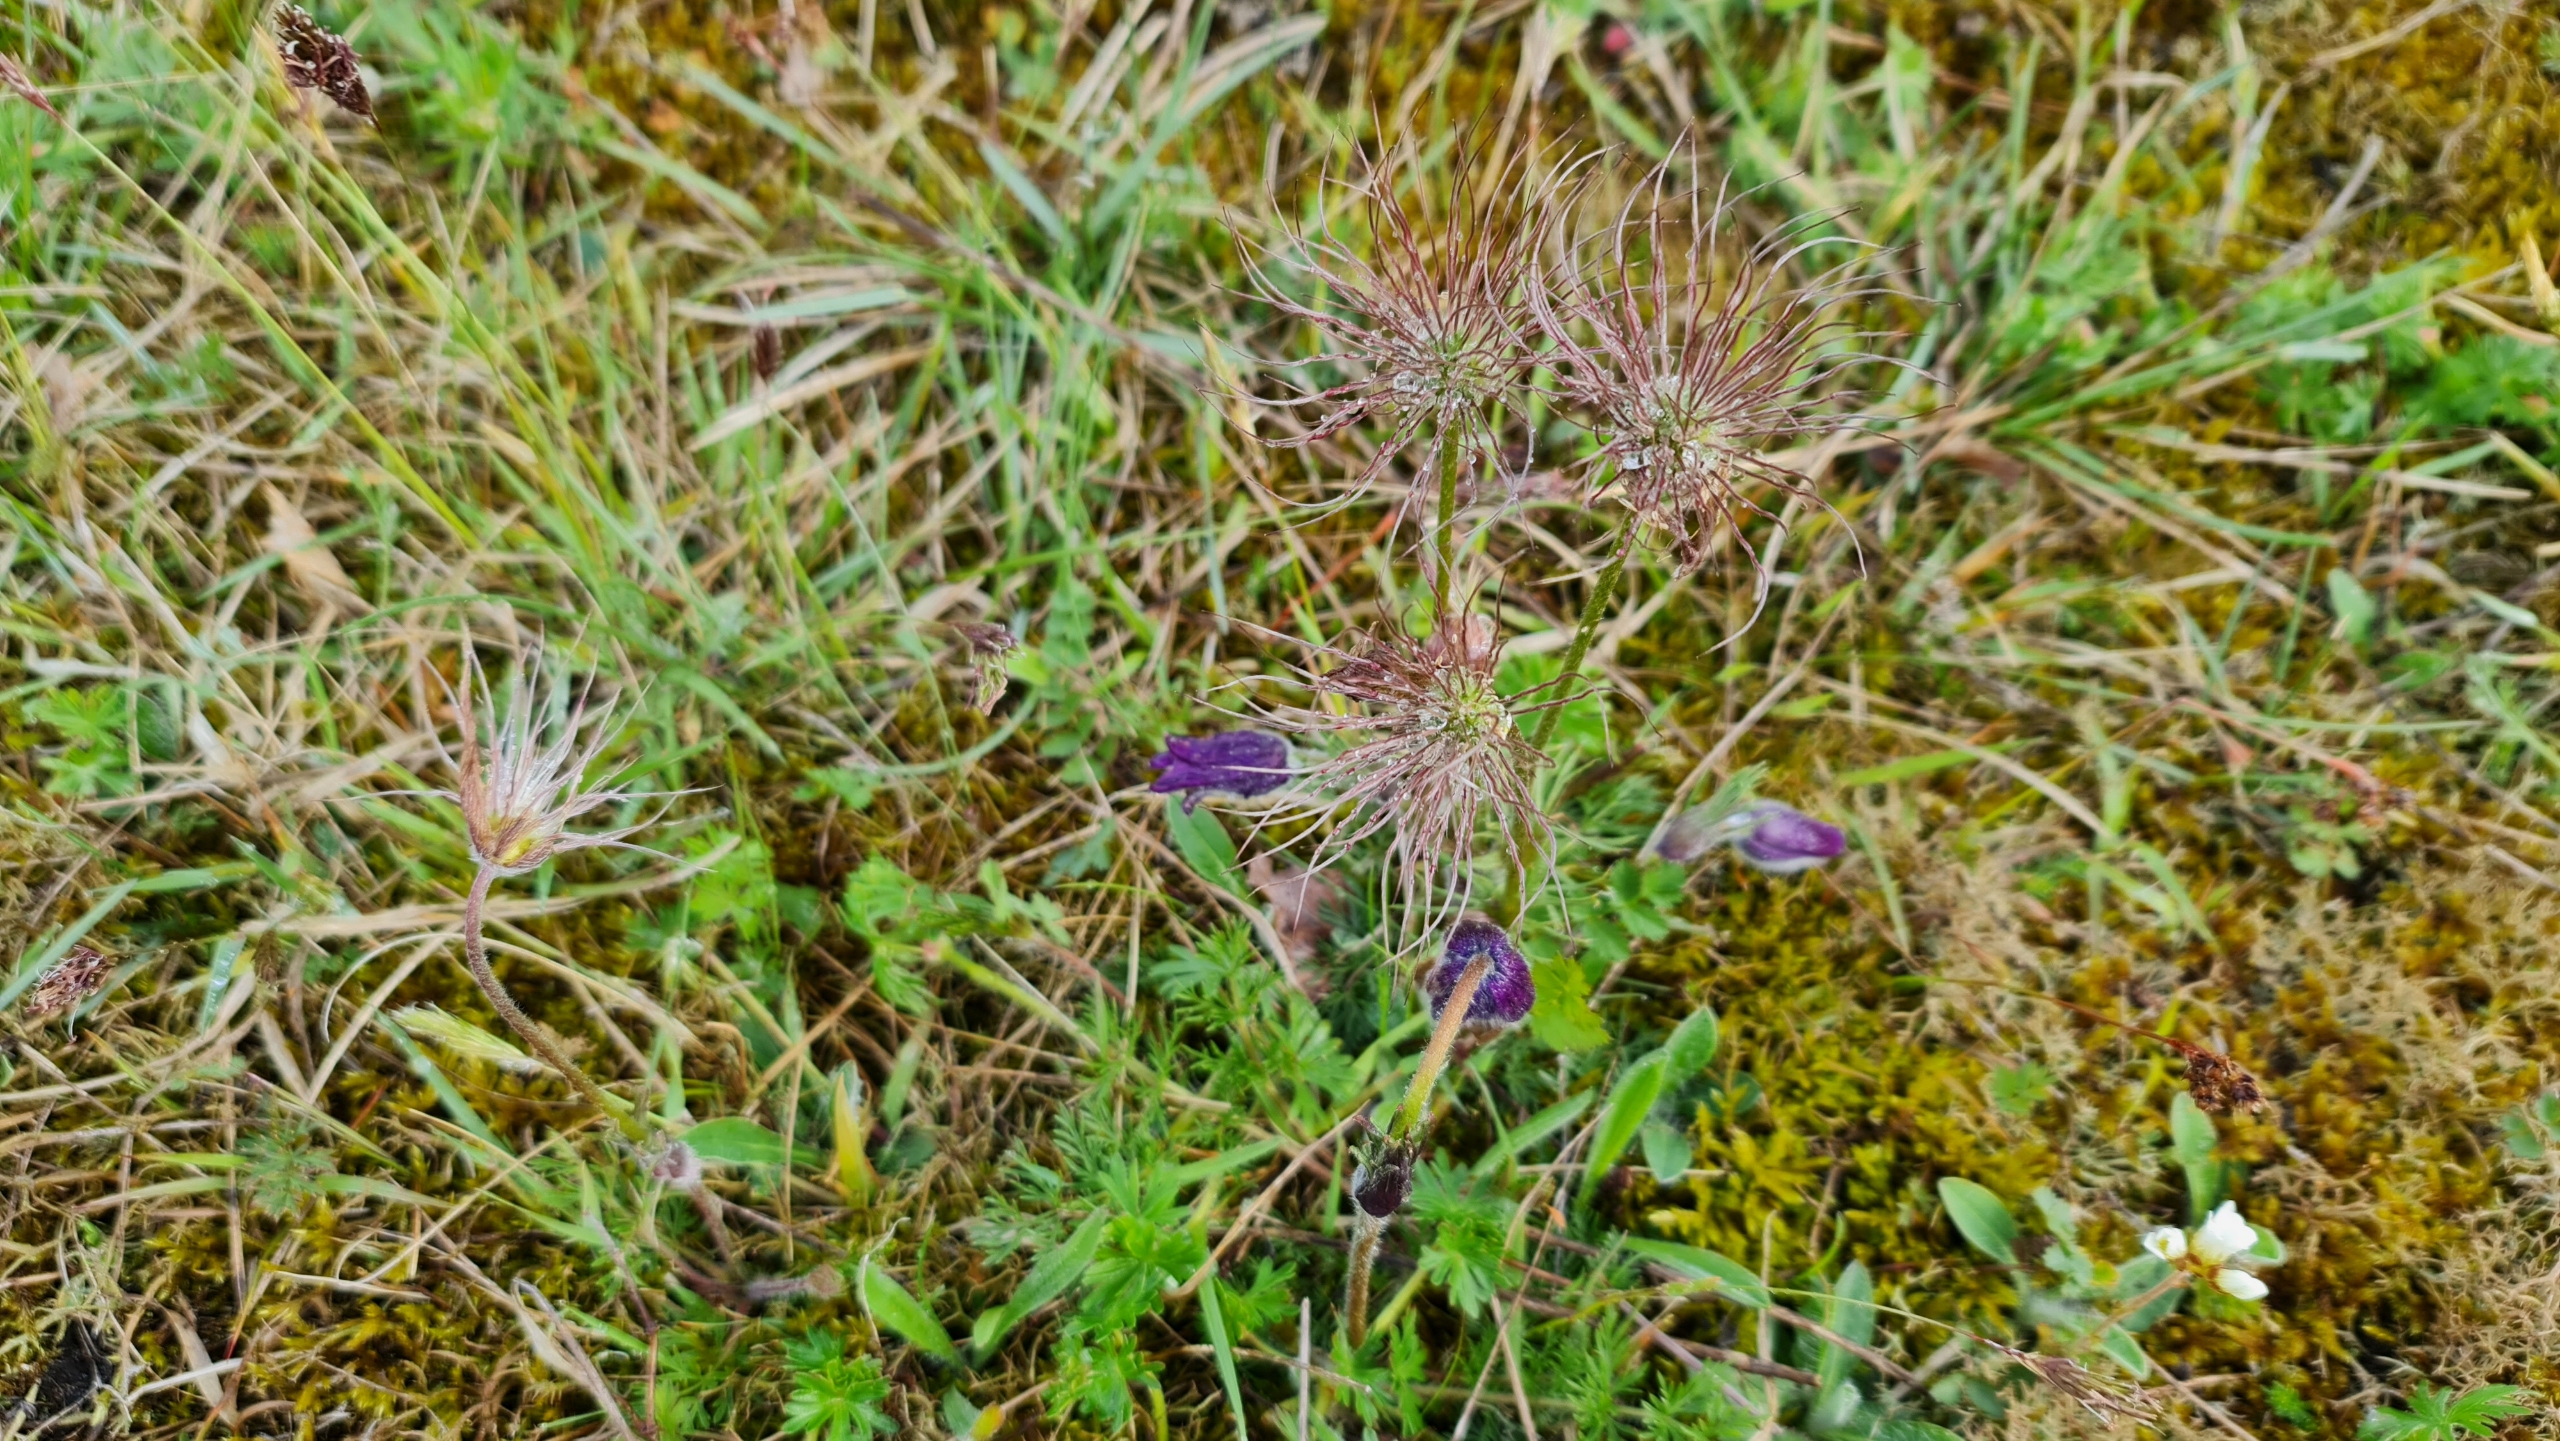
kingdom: Plantae
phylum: Tracheophyta
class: Magnoliopsida
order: Ranunculales
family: Ranunculaceae
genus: Pulsatilla
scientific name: Pulsatilla vulgaris
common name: Opret kobjælde
